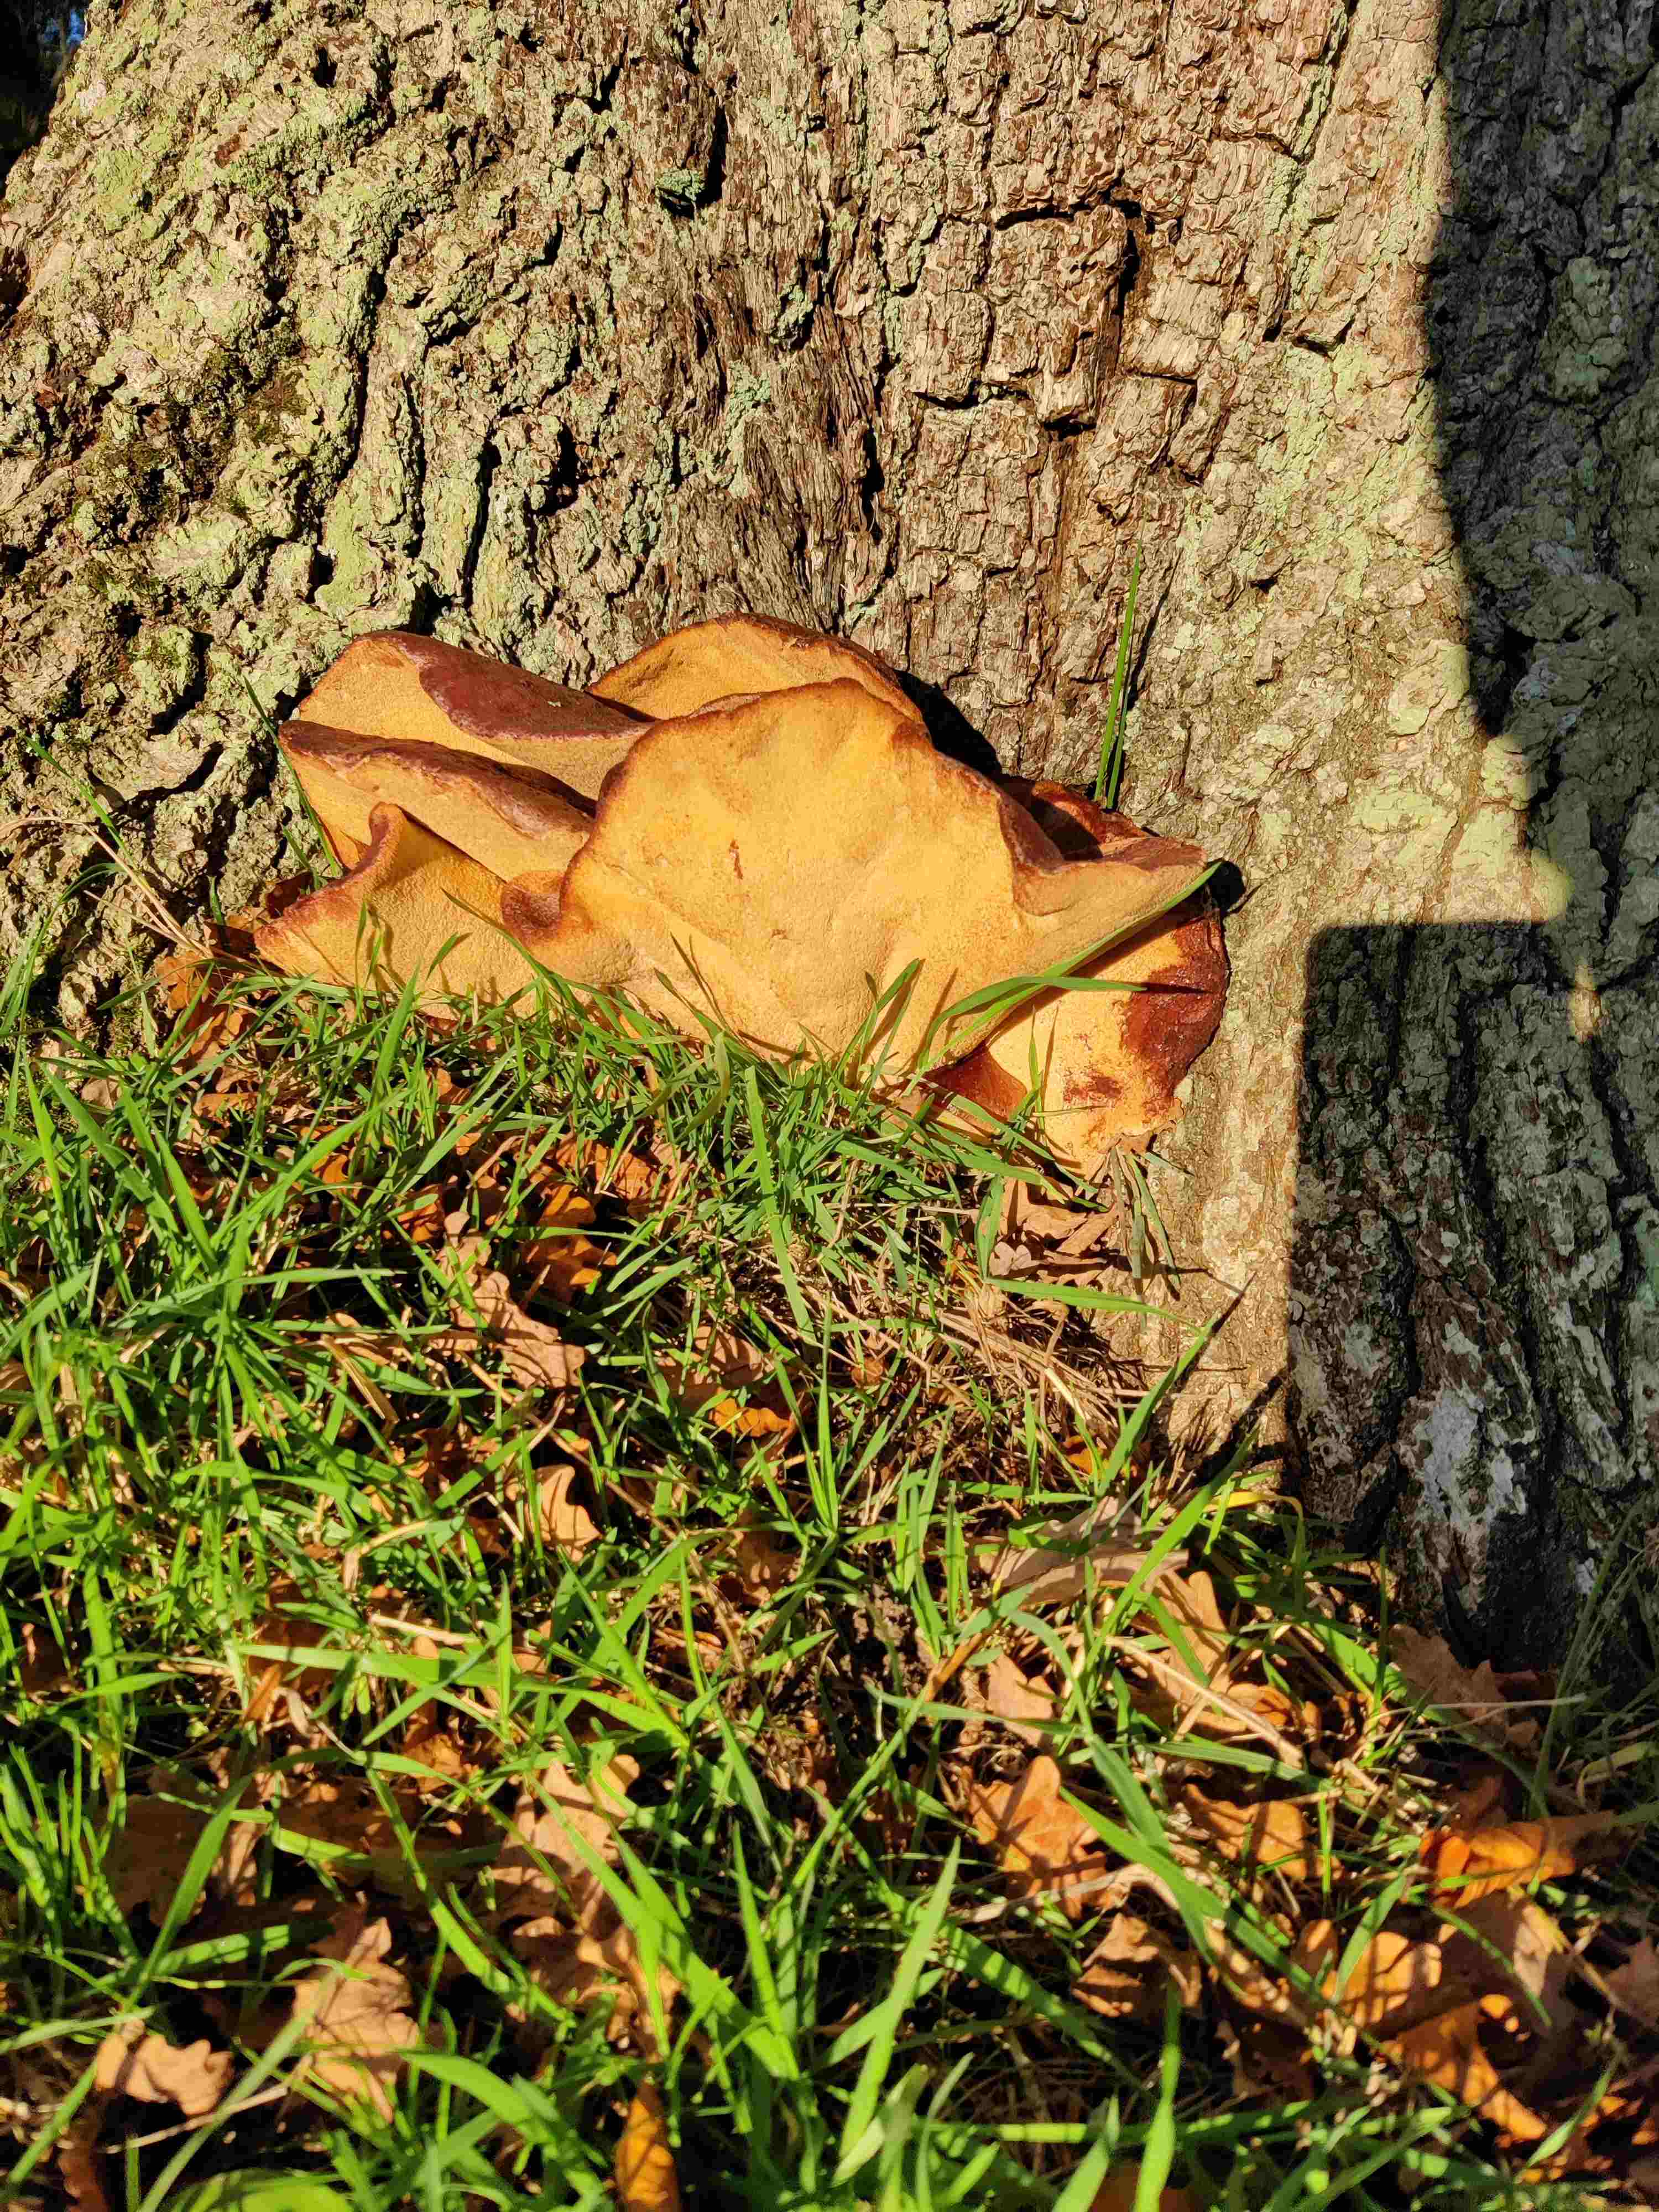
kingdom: Fungi
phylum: Basidiomycota
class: Agaricomycetes
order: Agaricales
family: Fistulinaceae
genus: Fistulina
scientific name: Fistulina hepatica
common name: oksetunge
